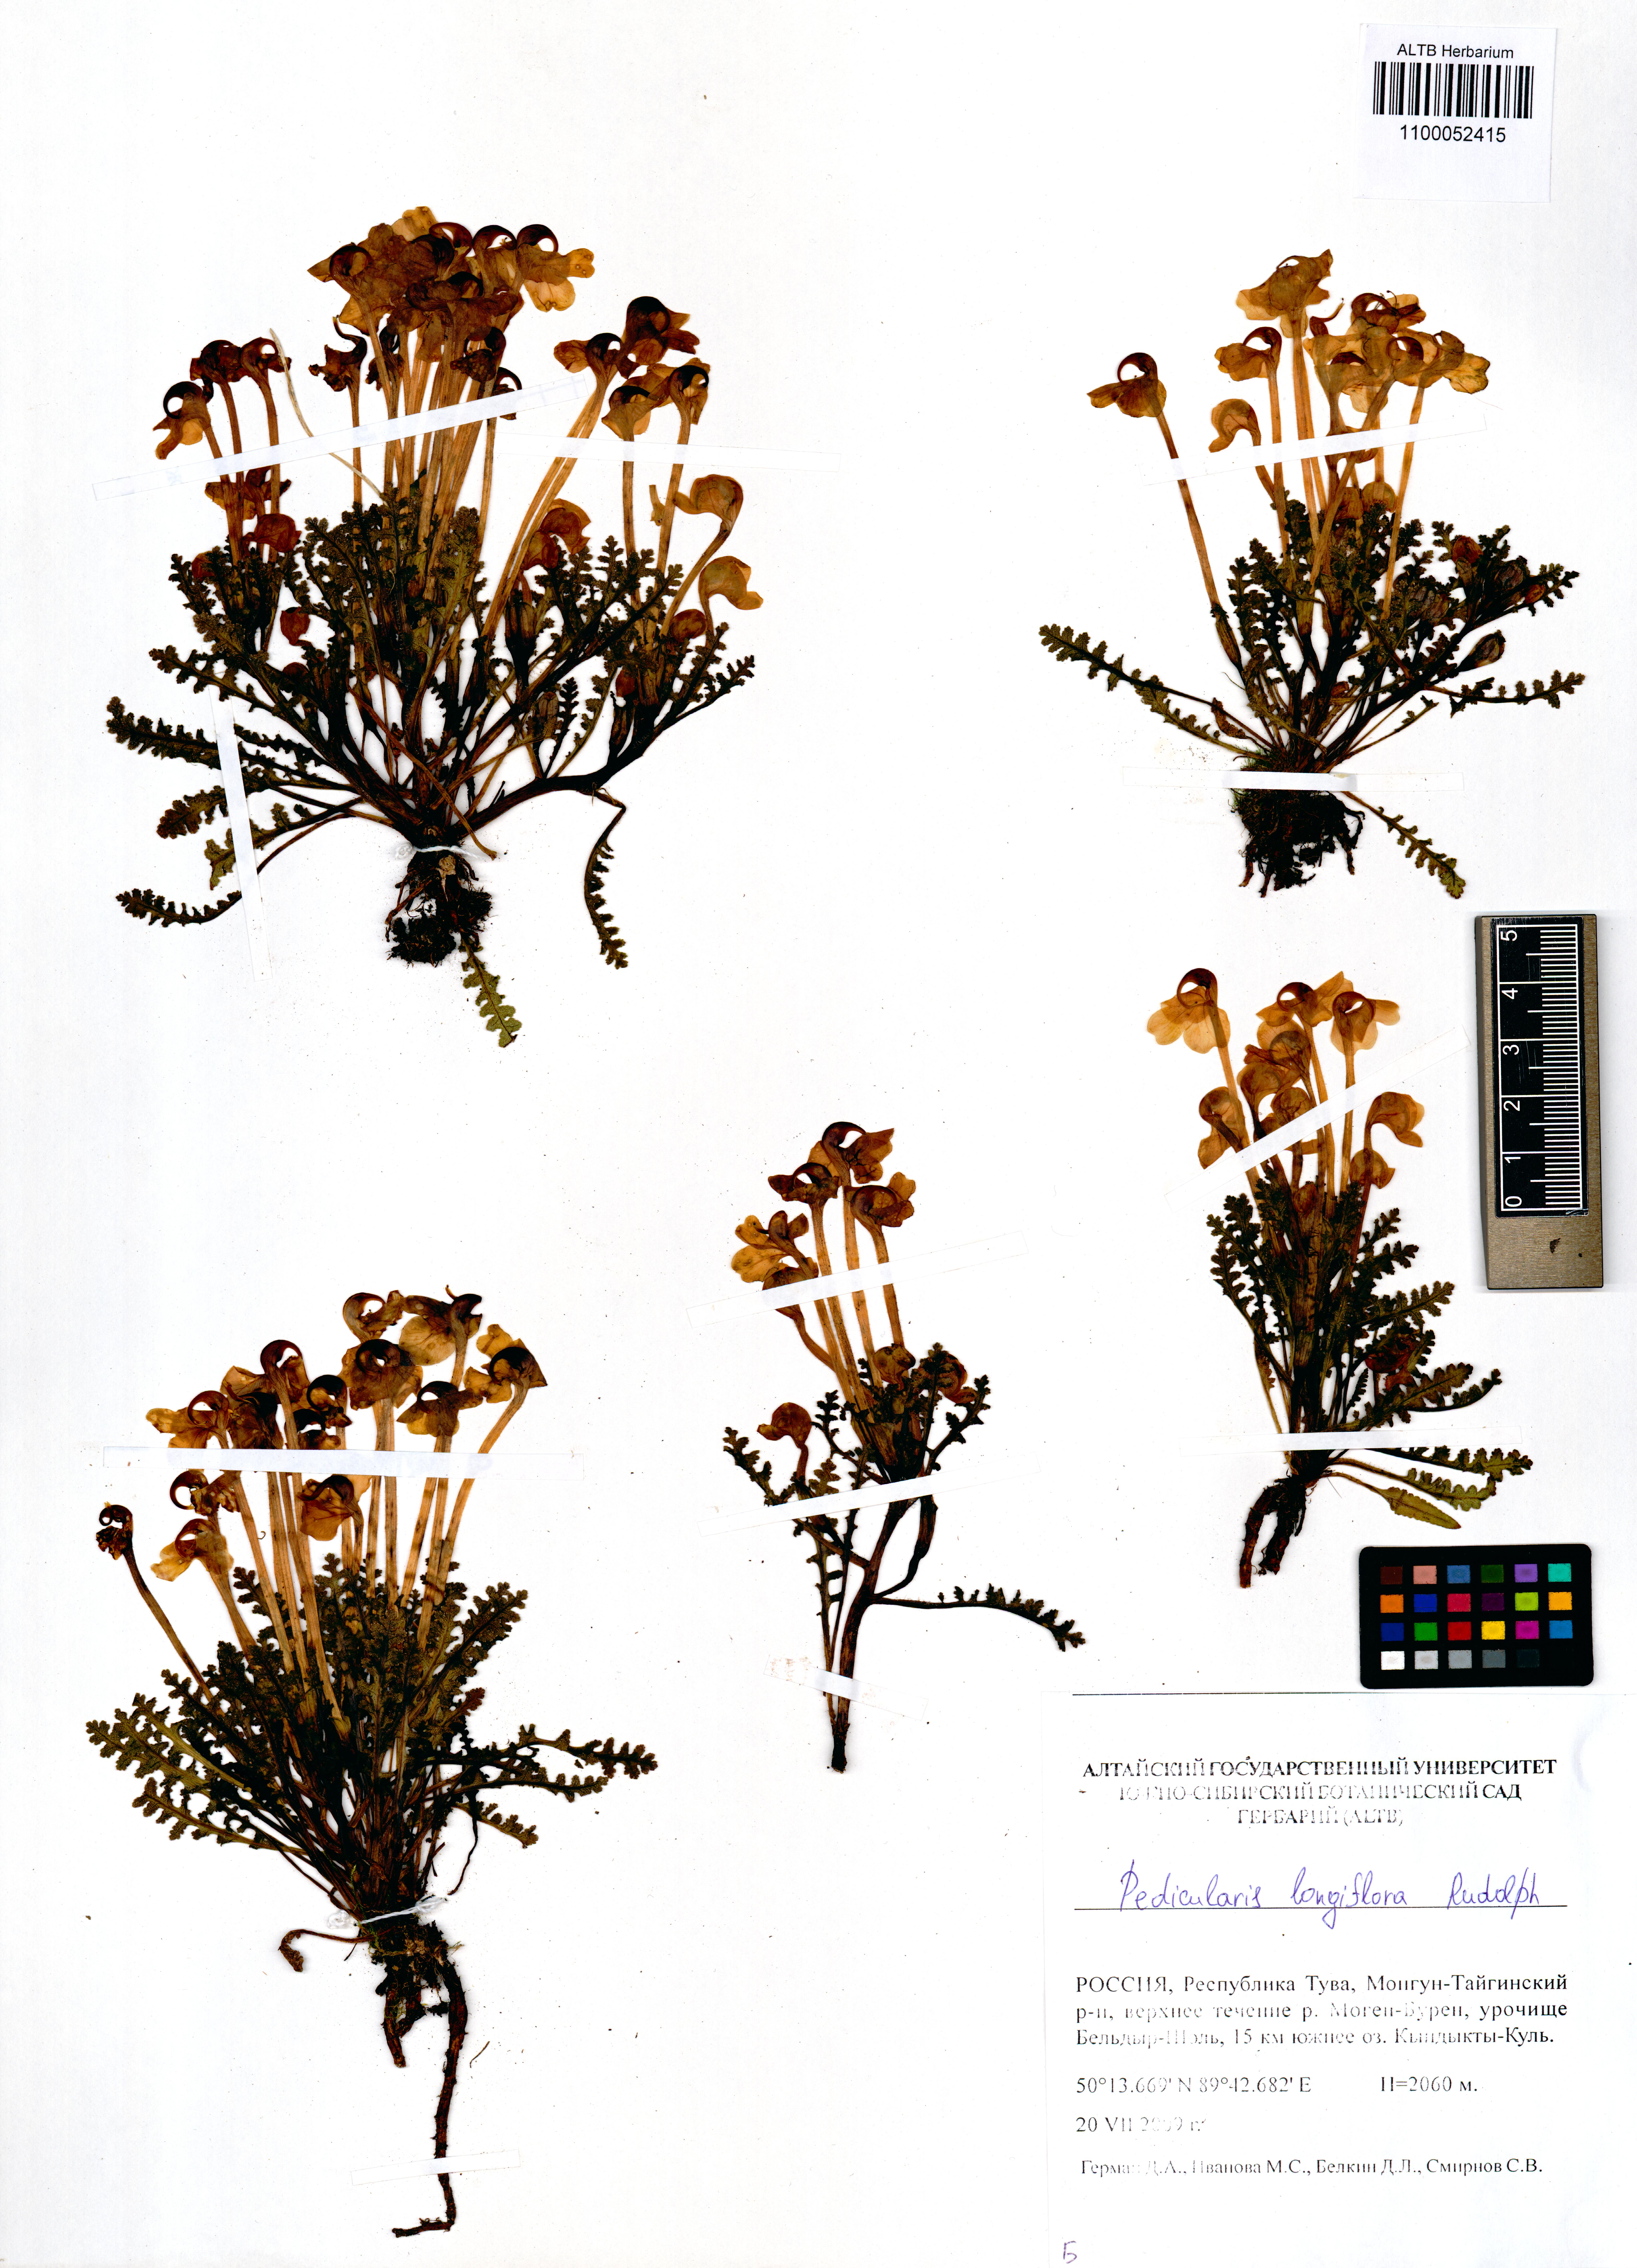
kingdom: Plantae
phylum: Tracheophyta
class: Magnoliopsida
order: Lamiales
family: Orobanchaceae
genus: Pedicularis
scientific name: Pedicularis longiflora
